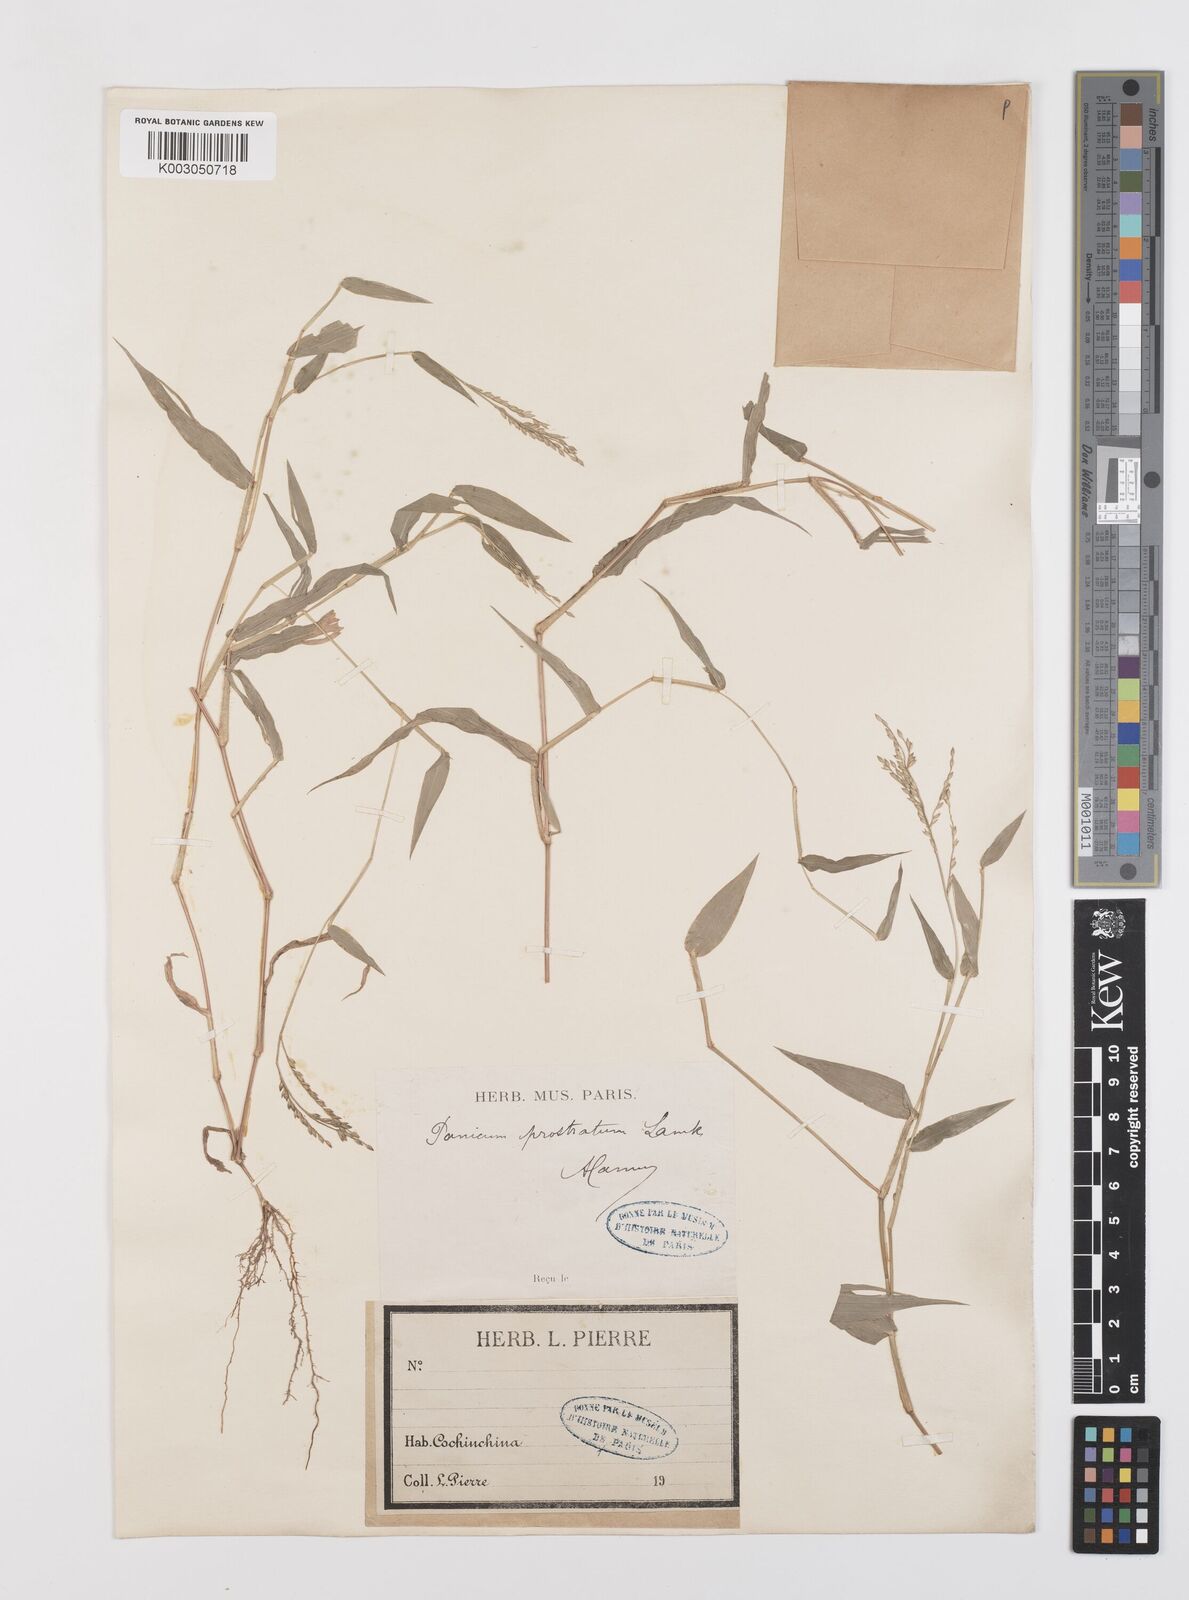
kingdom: Plantae
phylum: Tracheophyta
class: Liliopsida
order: Poales
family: Poaceae
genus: Urochloa
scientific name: Urochloa reptans
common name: Sprawling signalgrass
